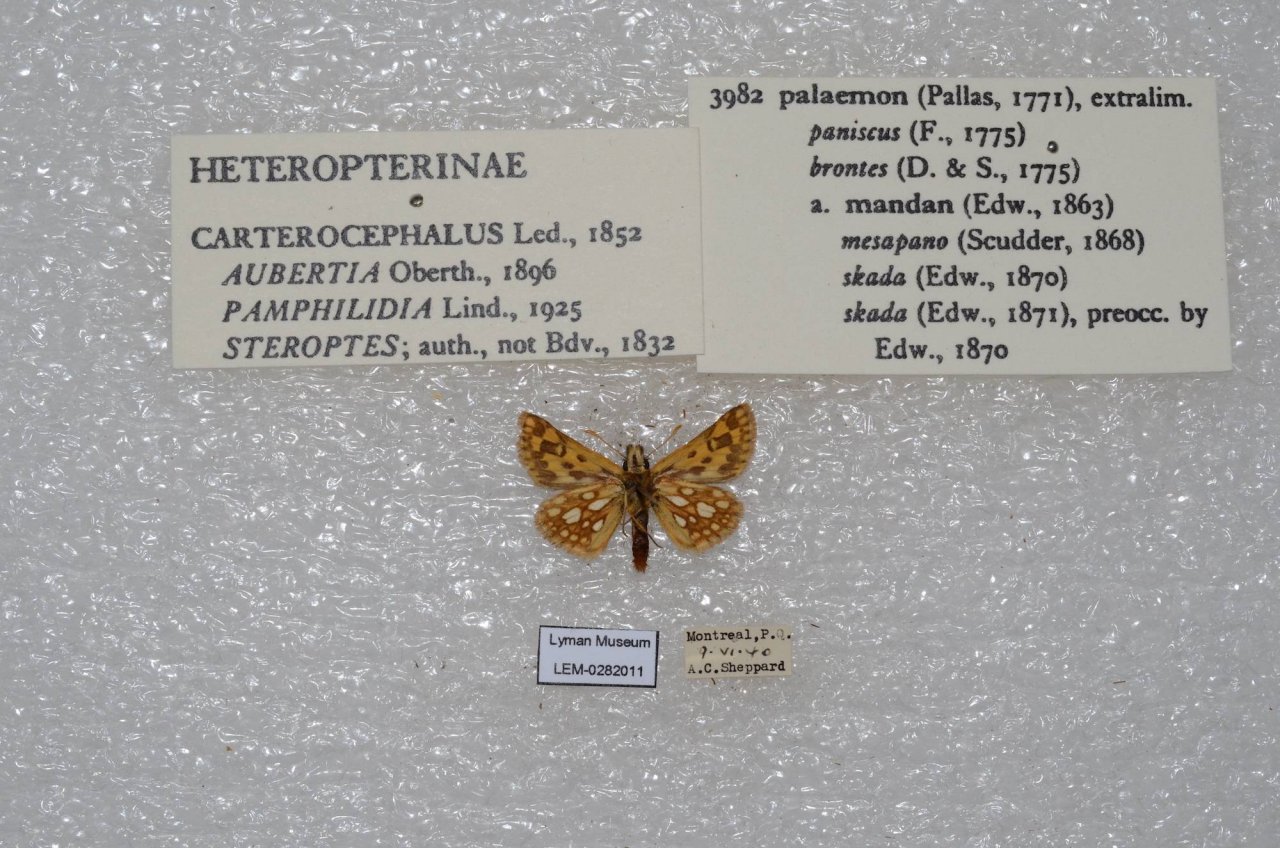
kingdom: Animalia
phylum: Arthropoda
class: Insecta
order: Lepidoptera
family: Hesperiidae
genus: Carterocephalus
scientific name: Carterocephalus palaemon
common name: Chequered Skipper
